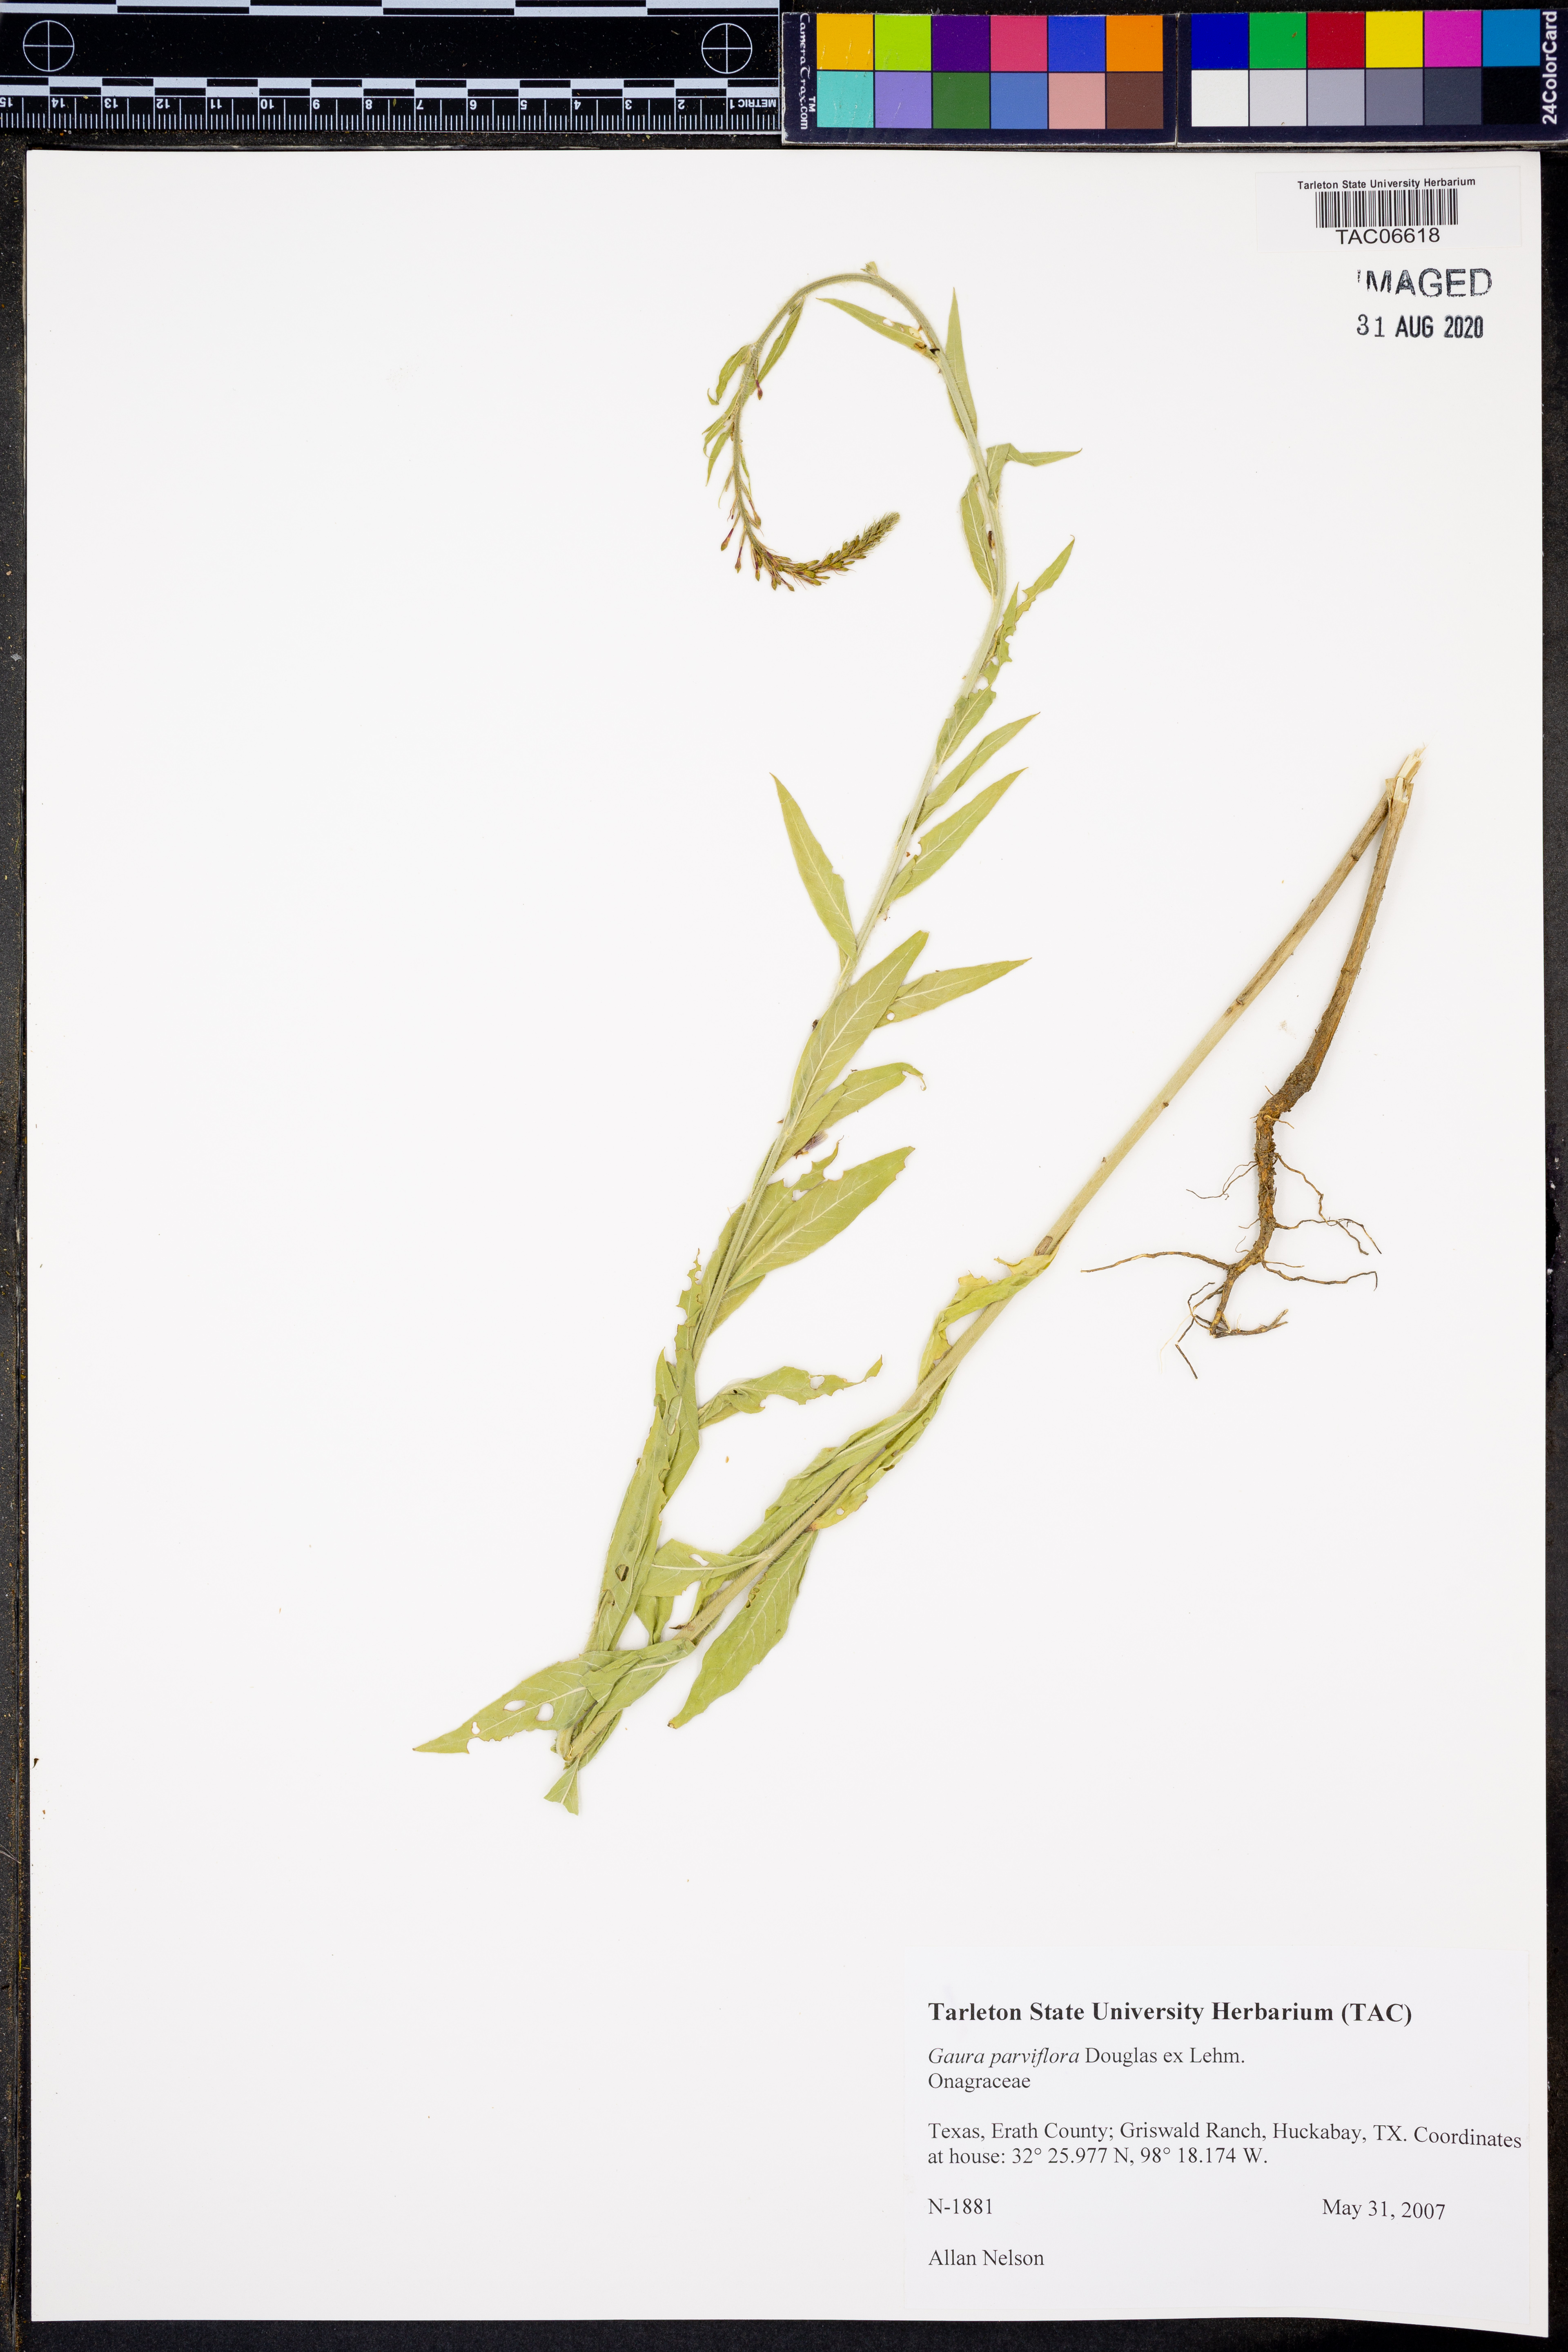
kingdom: Plantae
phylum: Tracheophyta
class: Magnoliopsida
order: Myrtales
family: Onagraceae
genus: Oenothera
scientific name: Oenothera curtiflora
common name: Velvetweed
